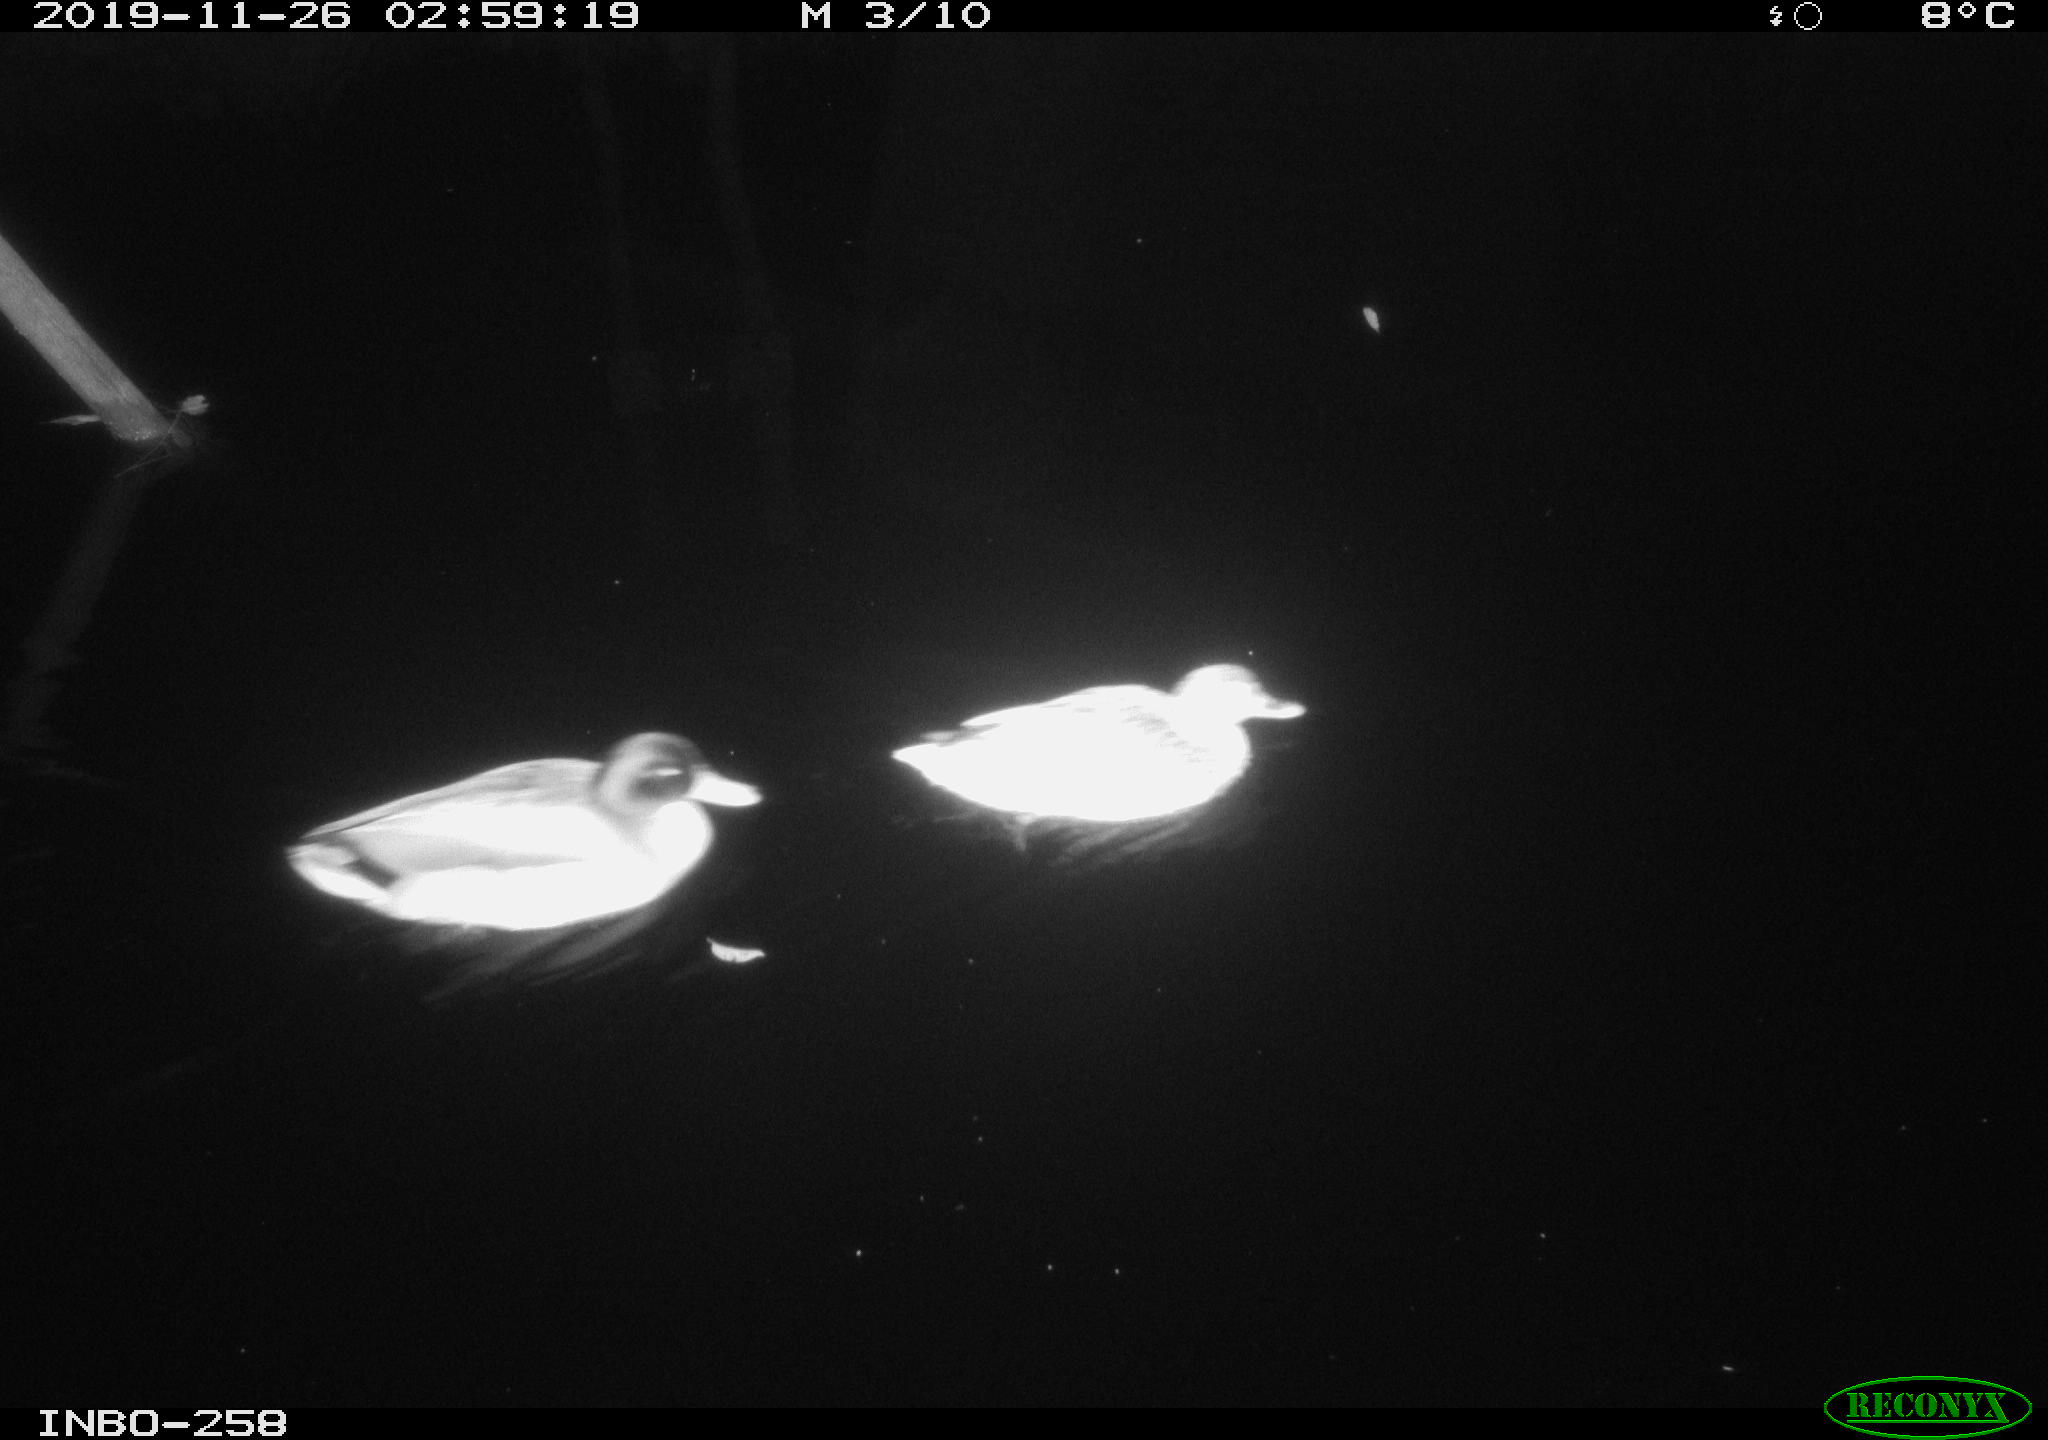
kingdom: Animalia
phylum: Chordata
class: Aves
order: Anseriformes
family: Anatidae
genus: Anas
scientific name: Anas platyrhynchos
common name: Mallard
